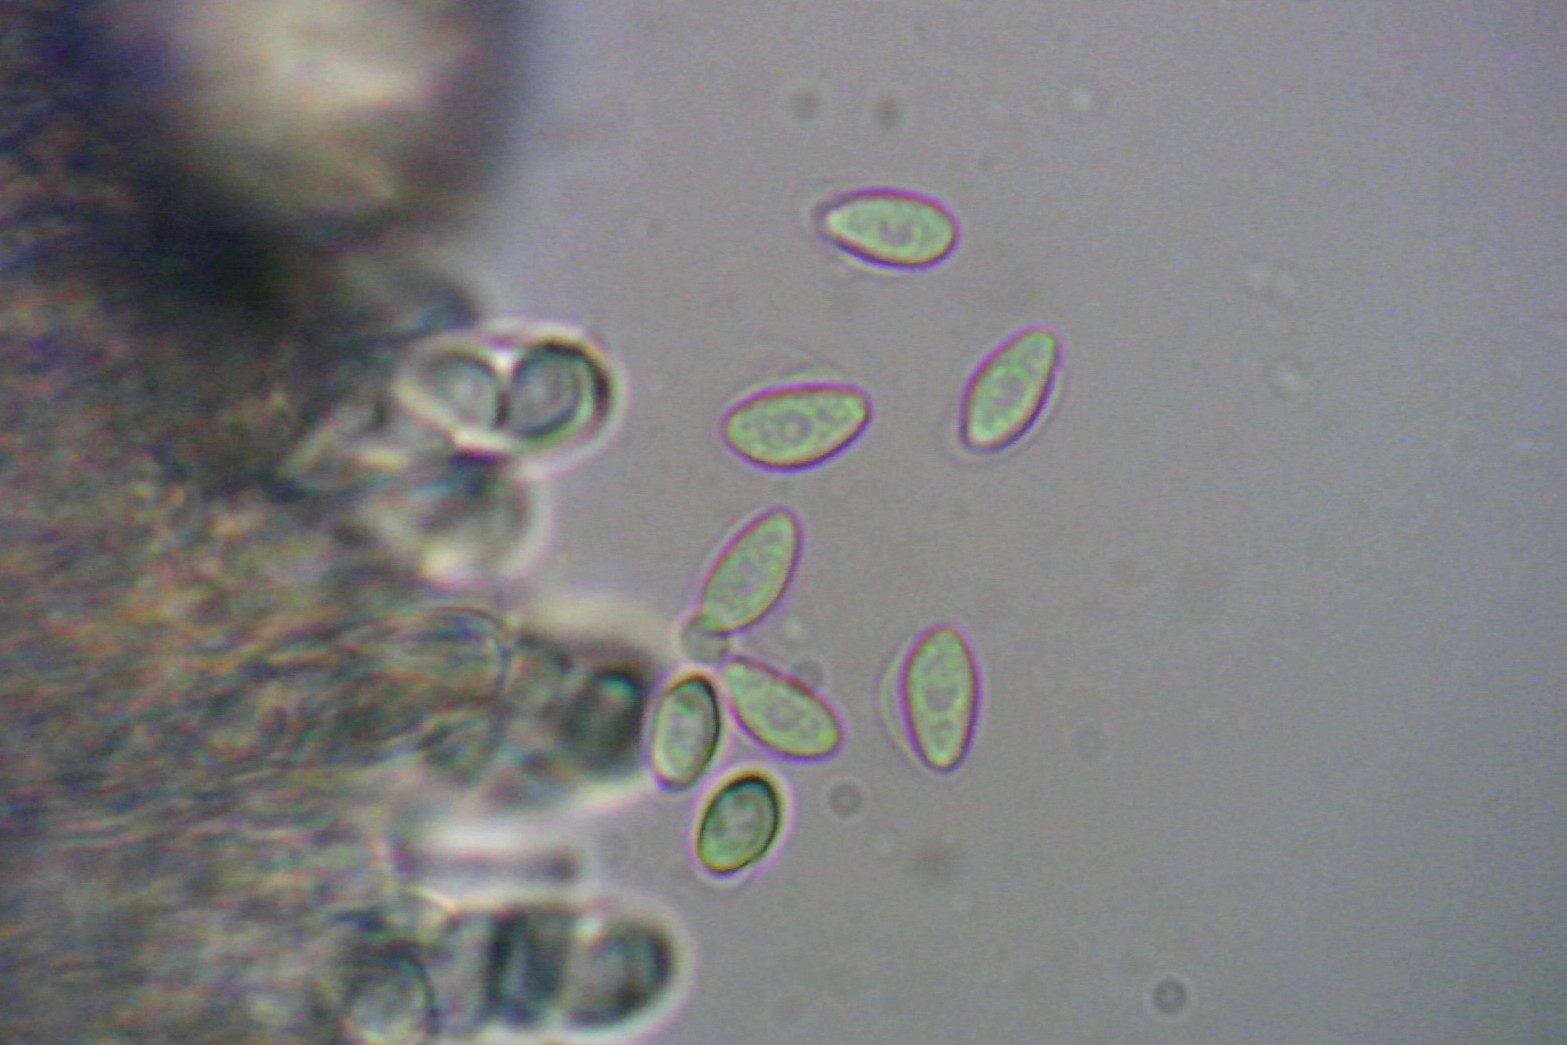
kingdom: Fungi
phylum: Ascomycota
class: Leotiomycetes
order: Helotiales
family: Sclerotiniaceae
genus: Ciboria
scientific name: Ciboria amentacea
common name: ellerakle-knoldskive
